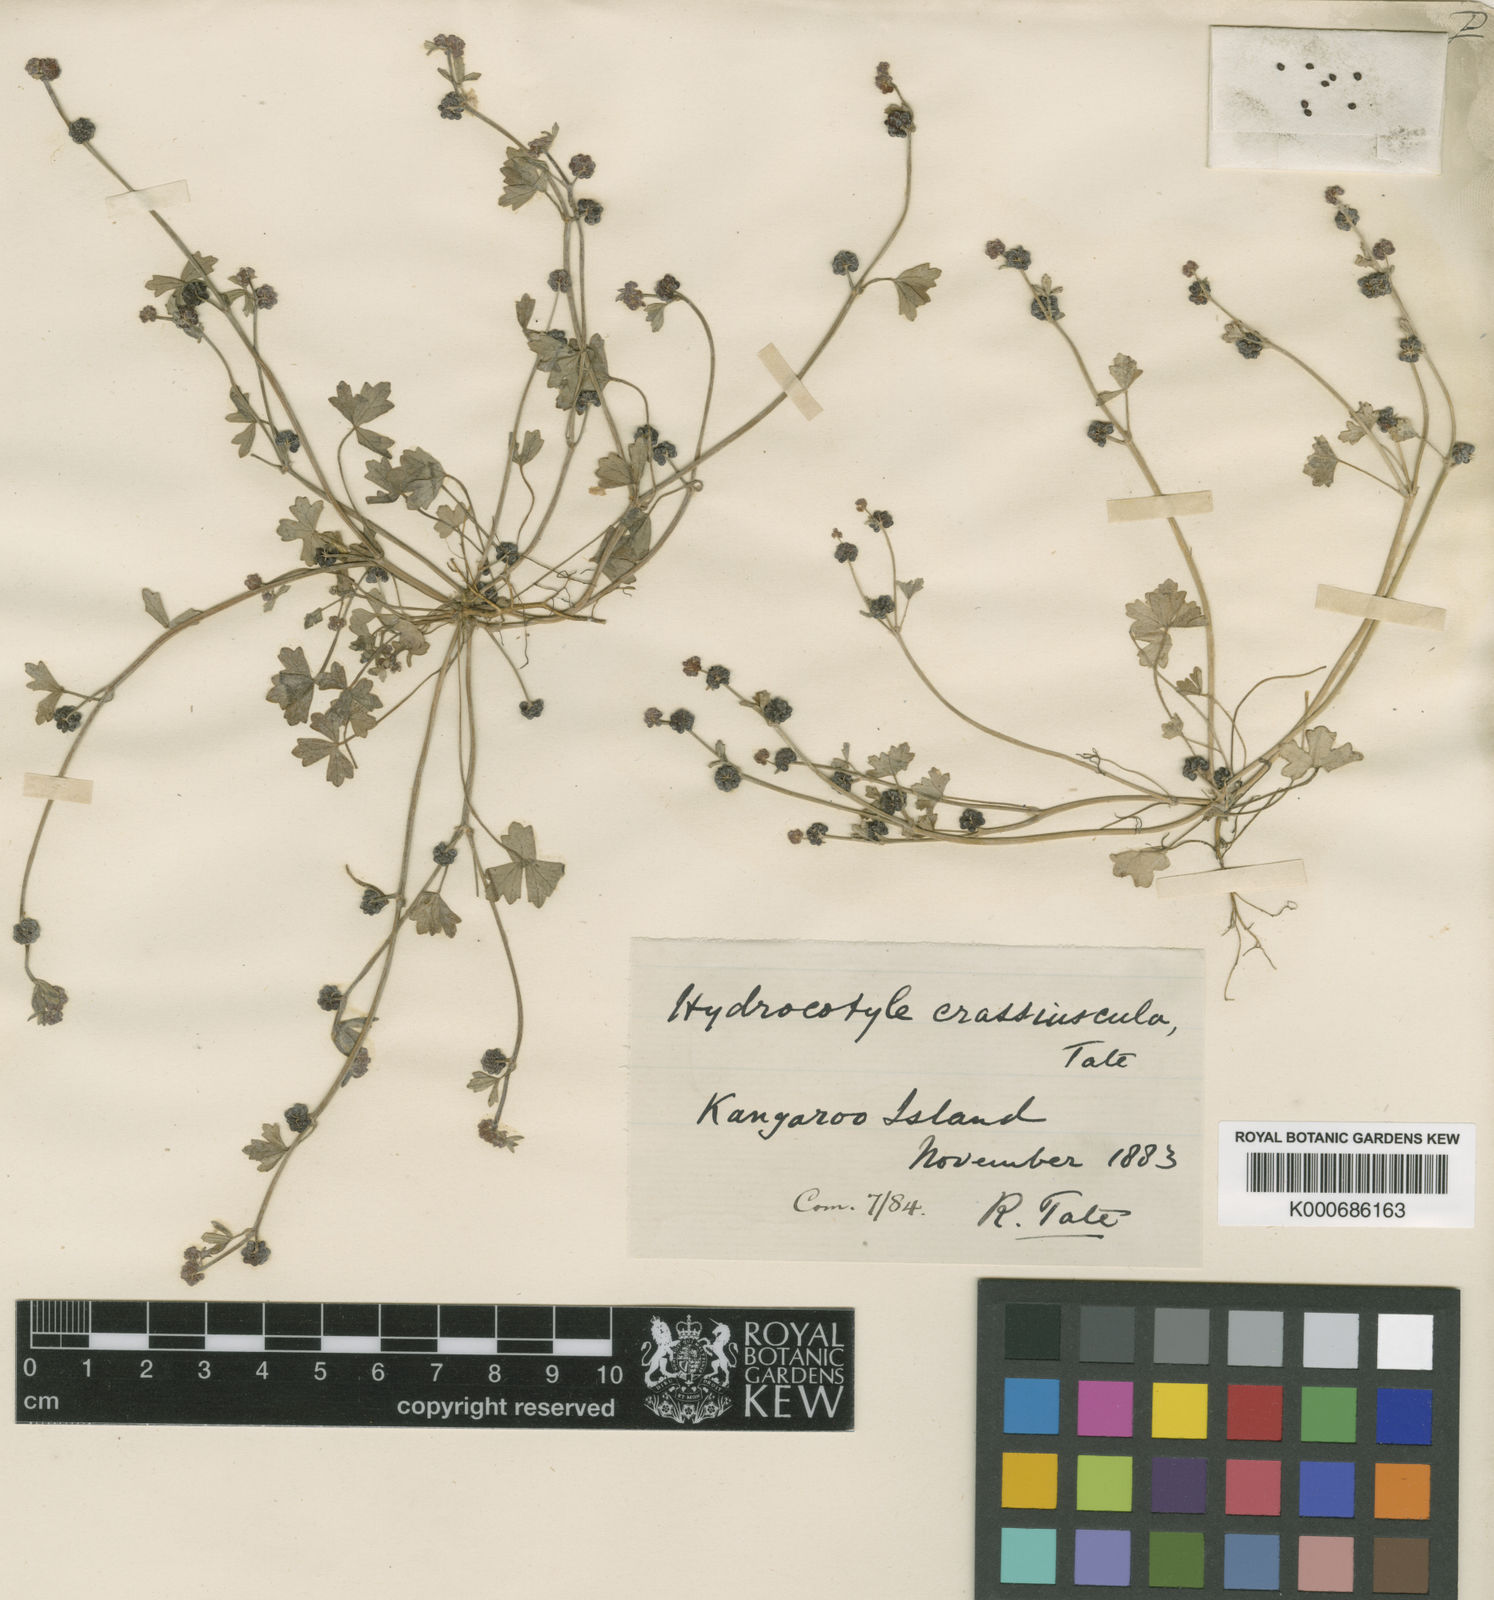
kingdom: Plantae
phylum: Tracheophyta
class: Magnoliopsida
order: Apiales
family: Araliaceae
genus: Hydrocotyle
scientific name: Hydrocotyle crassiuscula
